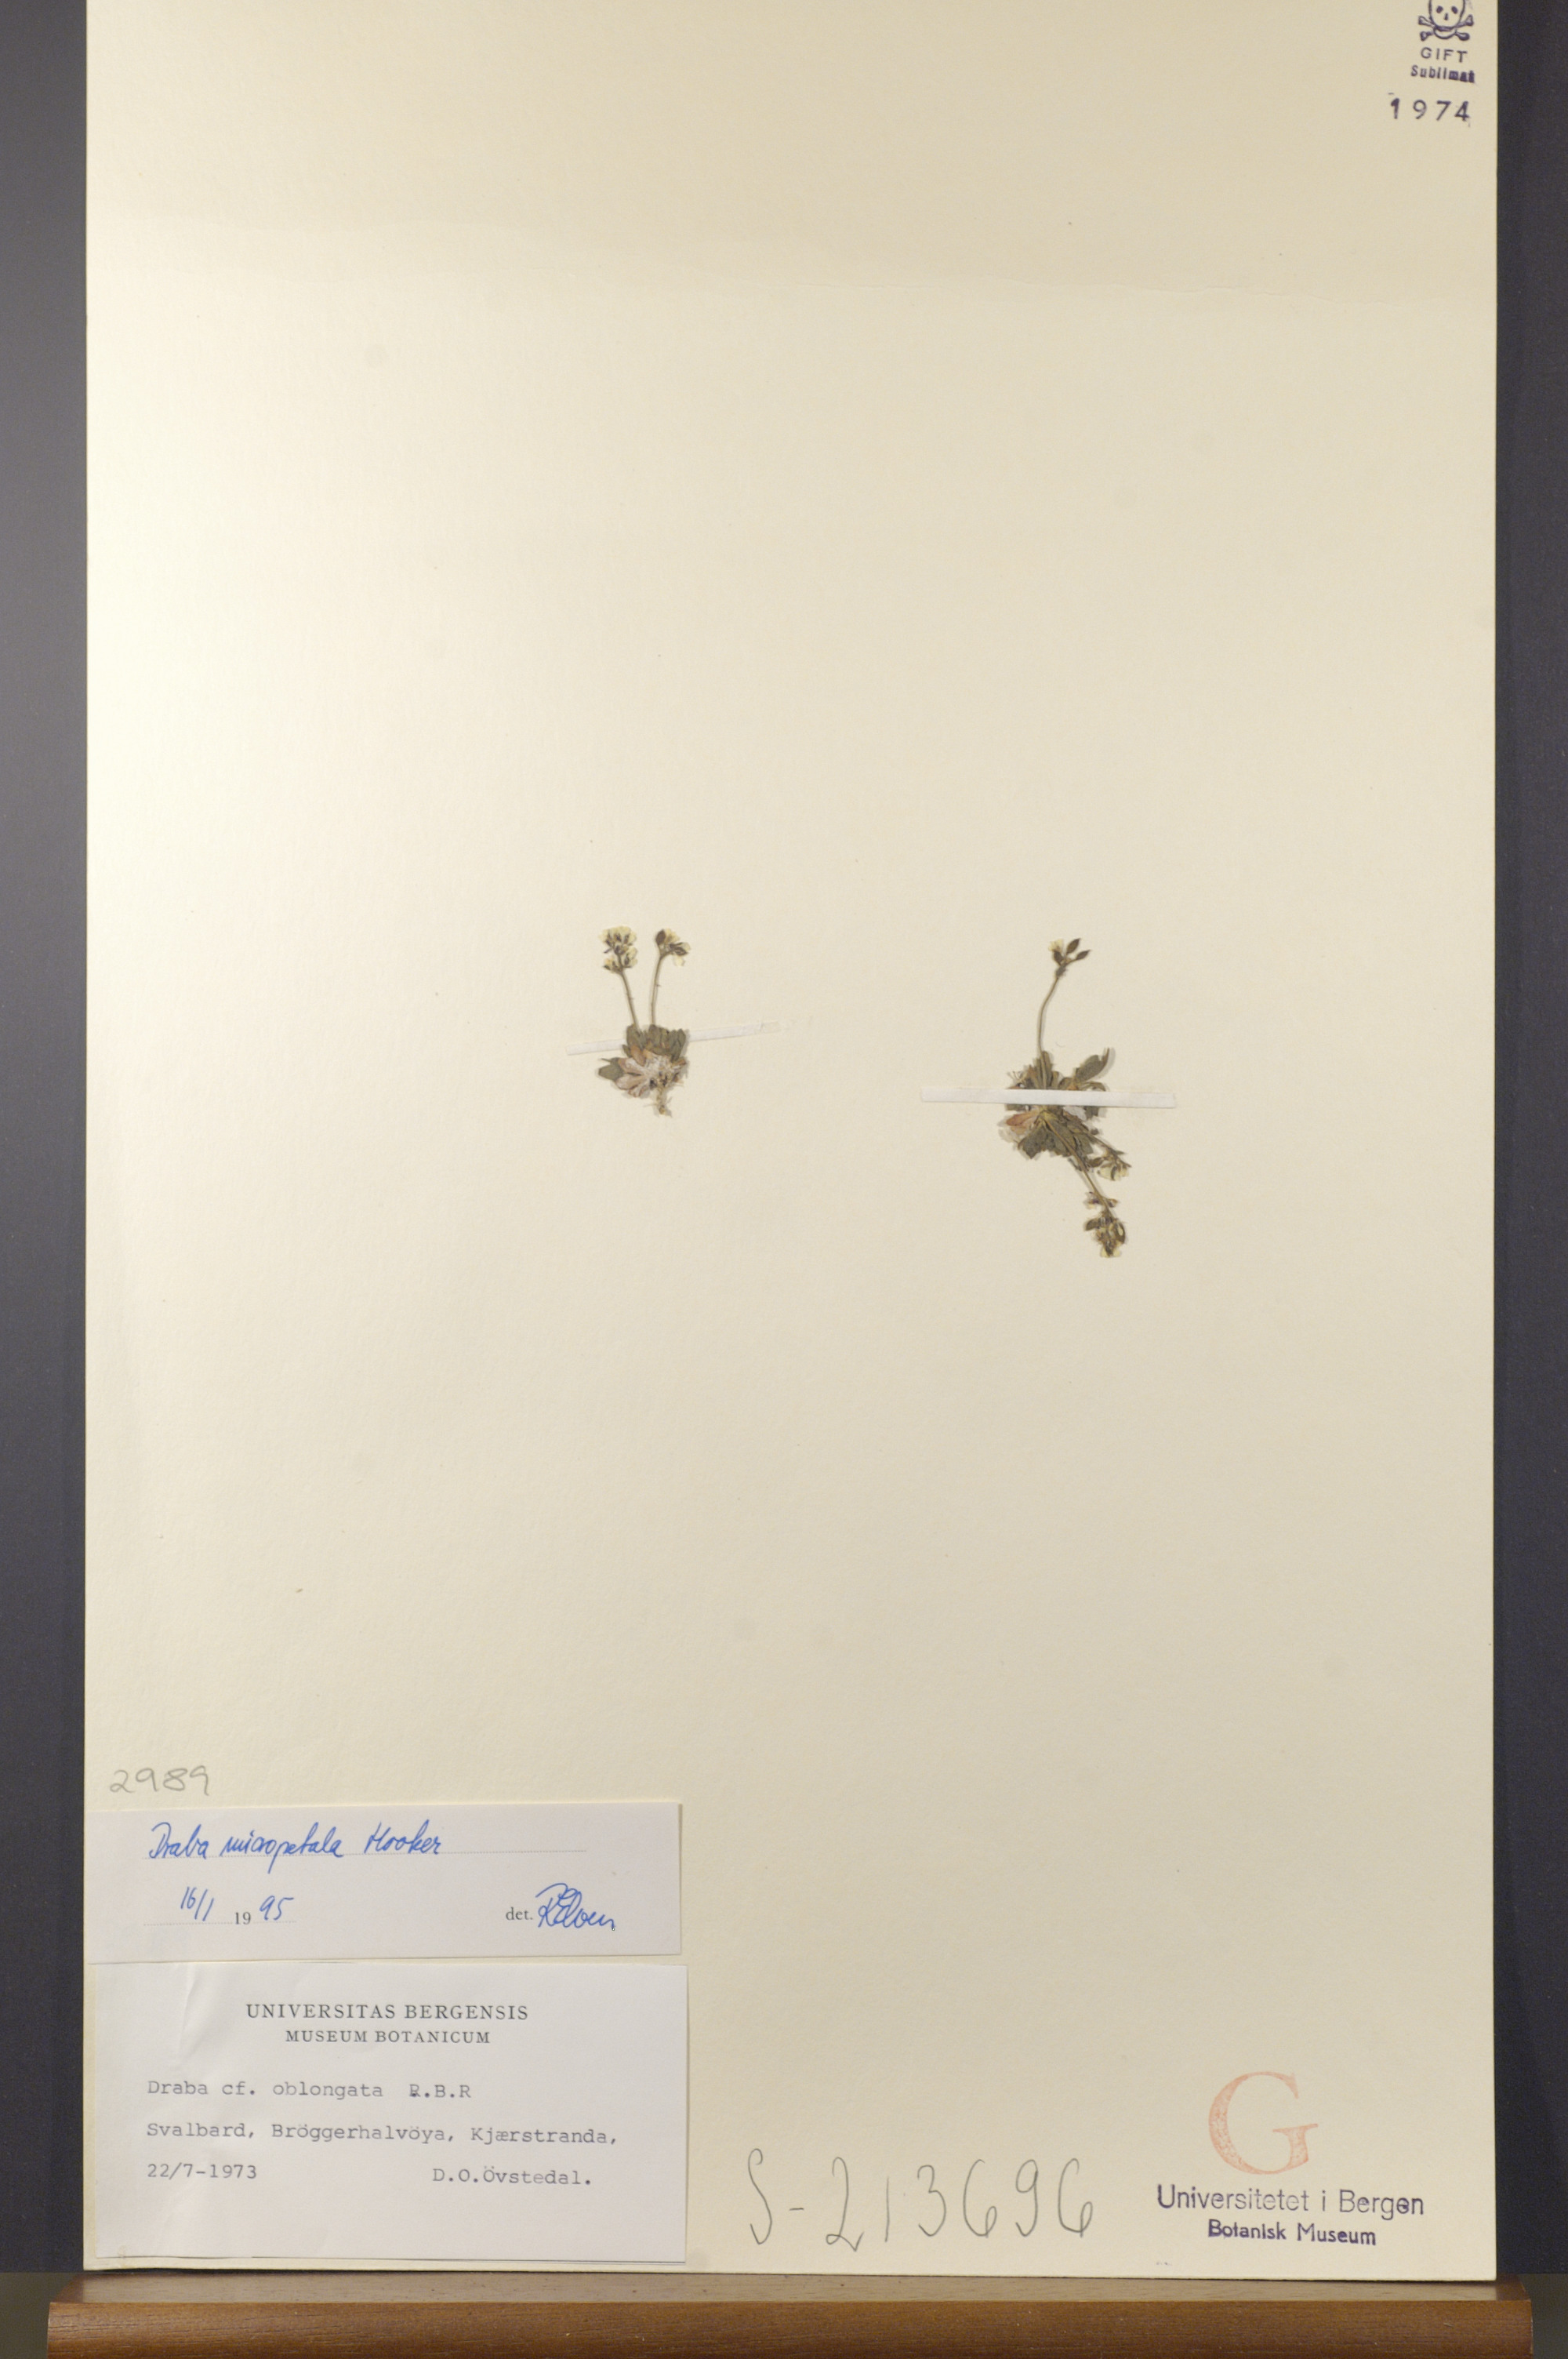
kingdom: Plantae
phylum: Tracheophyta
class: Magnoliopsida
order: Brassicales
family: Brassicaceae
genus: Draba
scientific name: Draba micropetala
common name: Small-flowered draba
